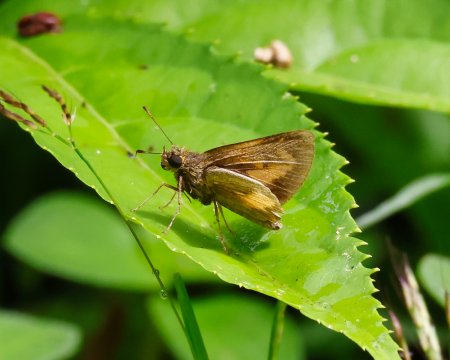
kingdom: Animalia
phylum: Arthropoda
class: Insecta
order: Lepidoptera
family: Hesperiidae
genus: Anthoptus
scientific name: Anthoptus epictetus
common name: Trailside Skipper
